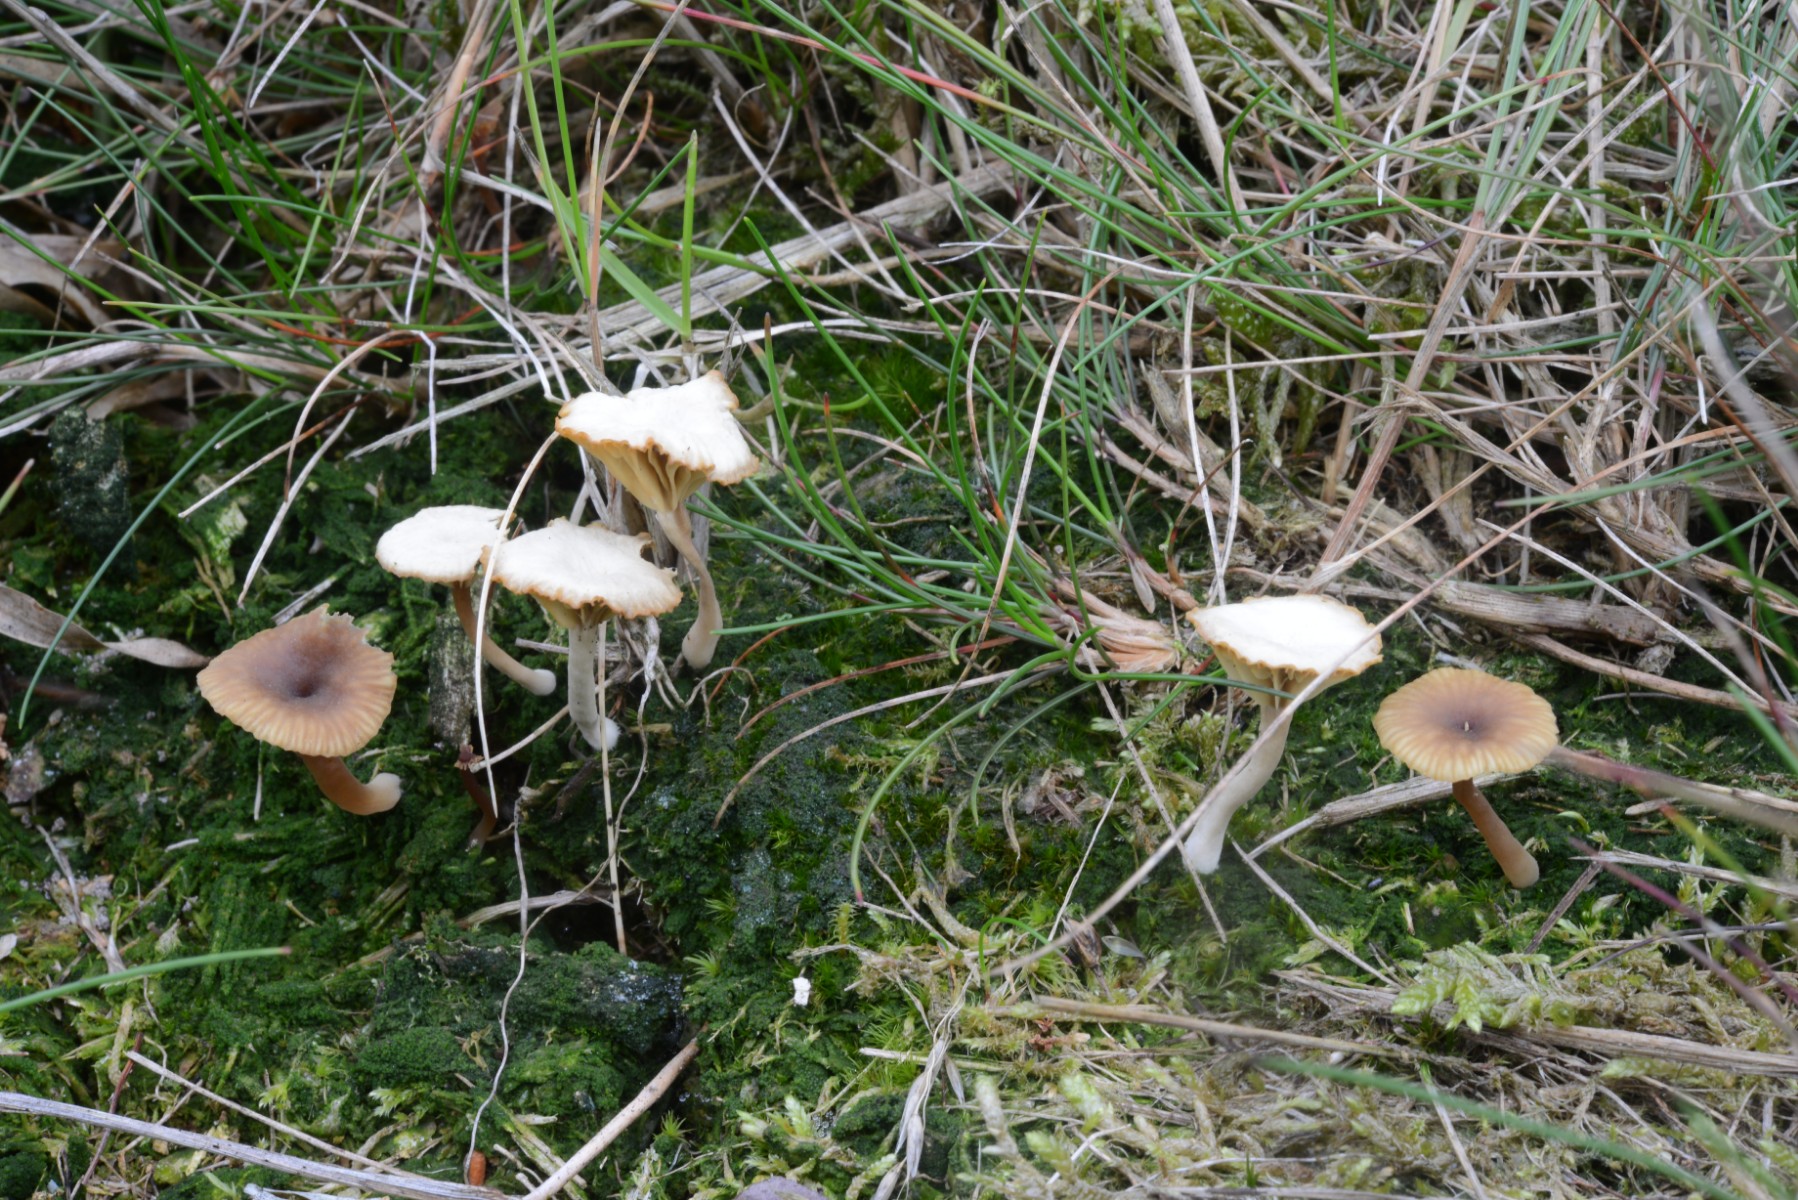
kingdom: Fungi
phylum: Basidiomycota
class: Agaricomycetes
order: Agaricales
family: Hygrophoraceae
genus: Lichenomphalia
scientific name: Lichenomphalia umbellifera
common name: tørve-lavhat
